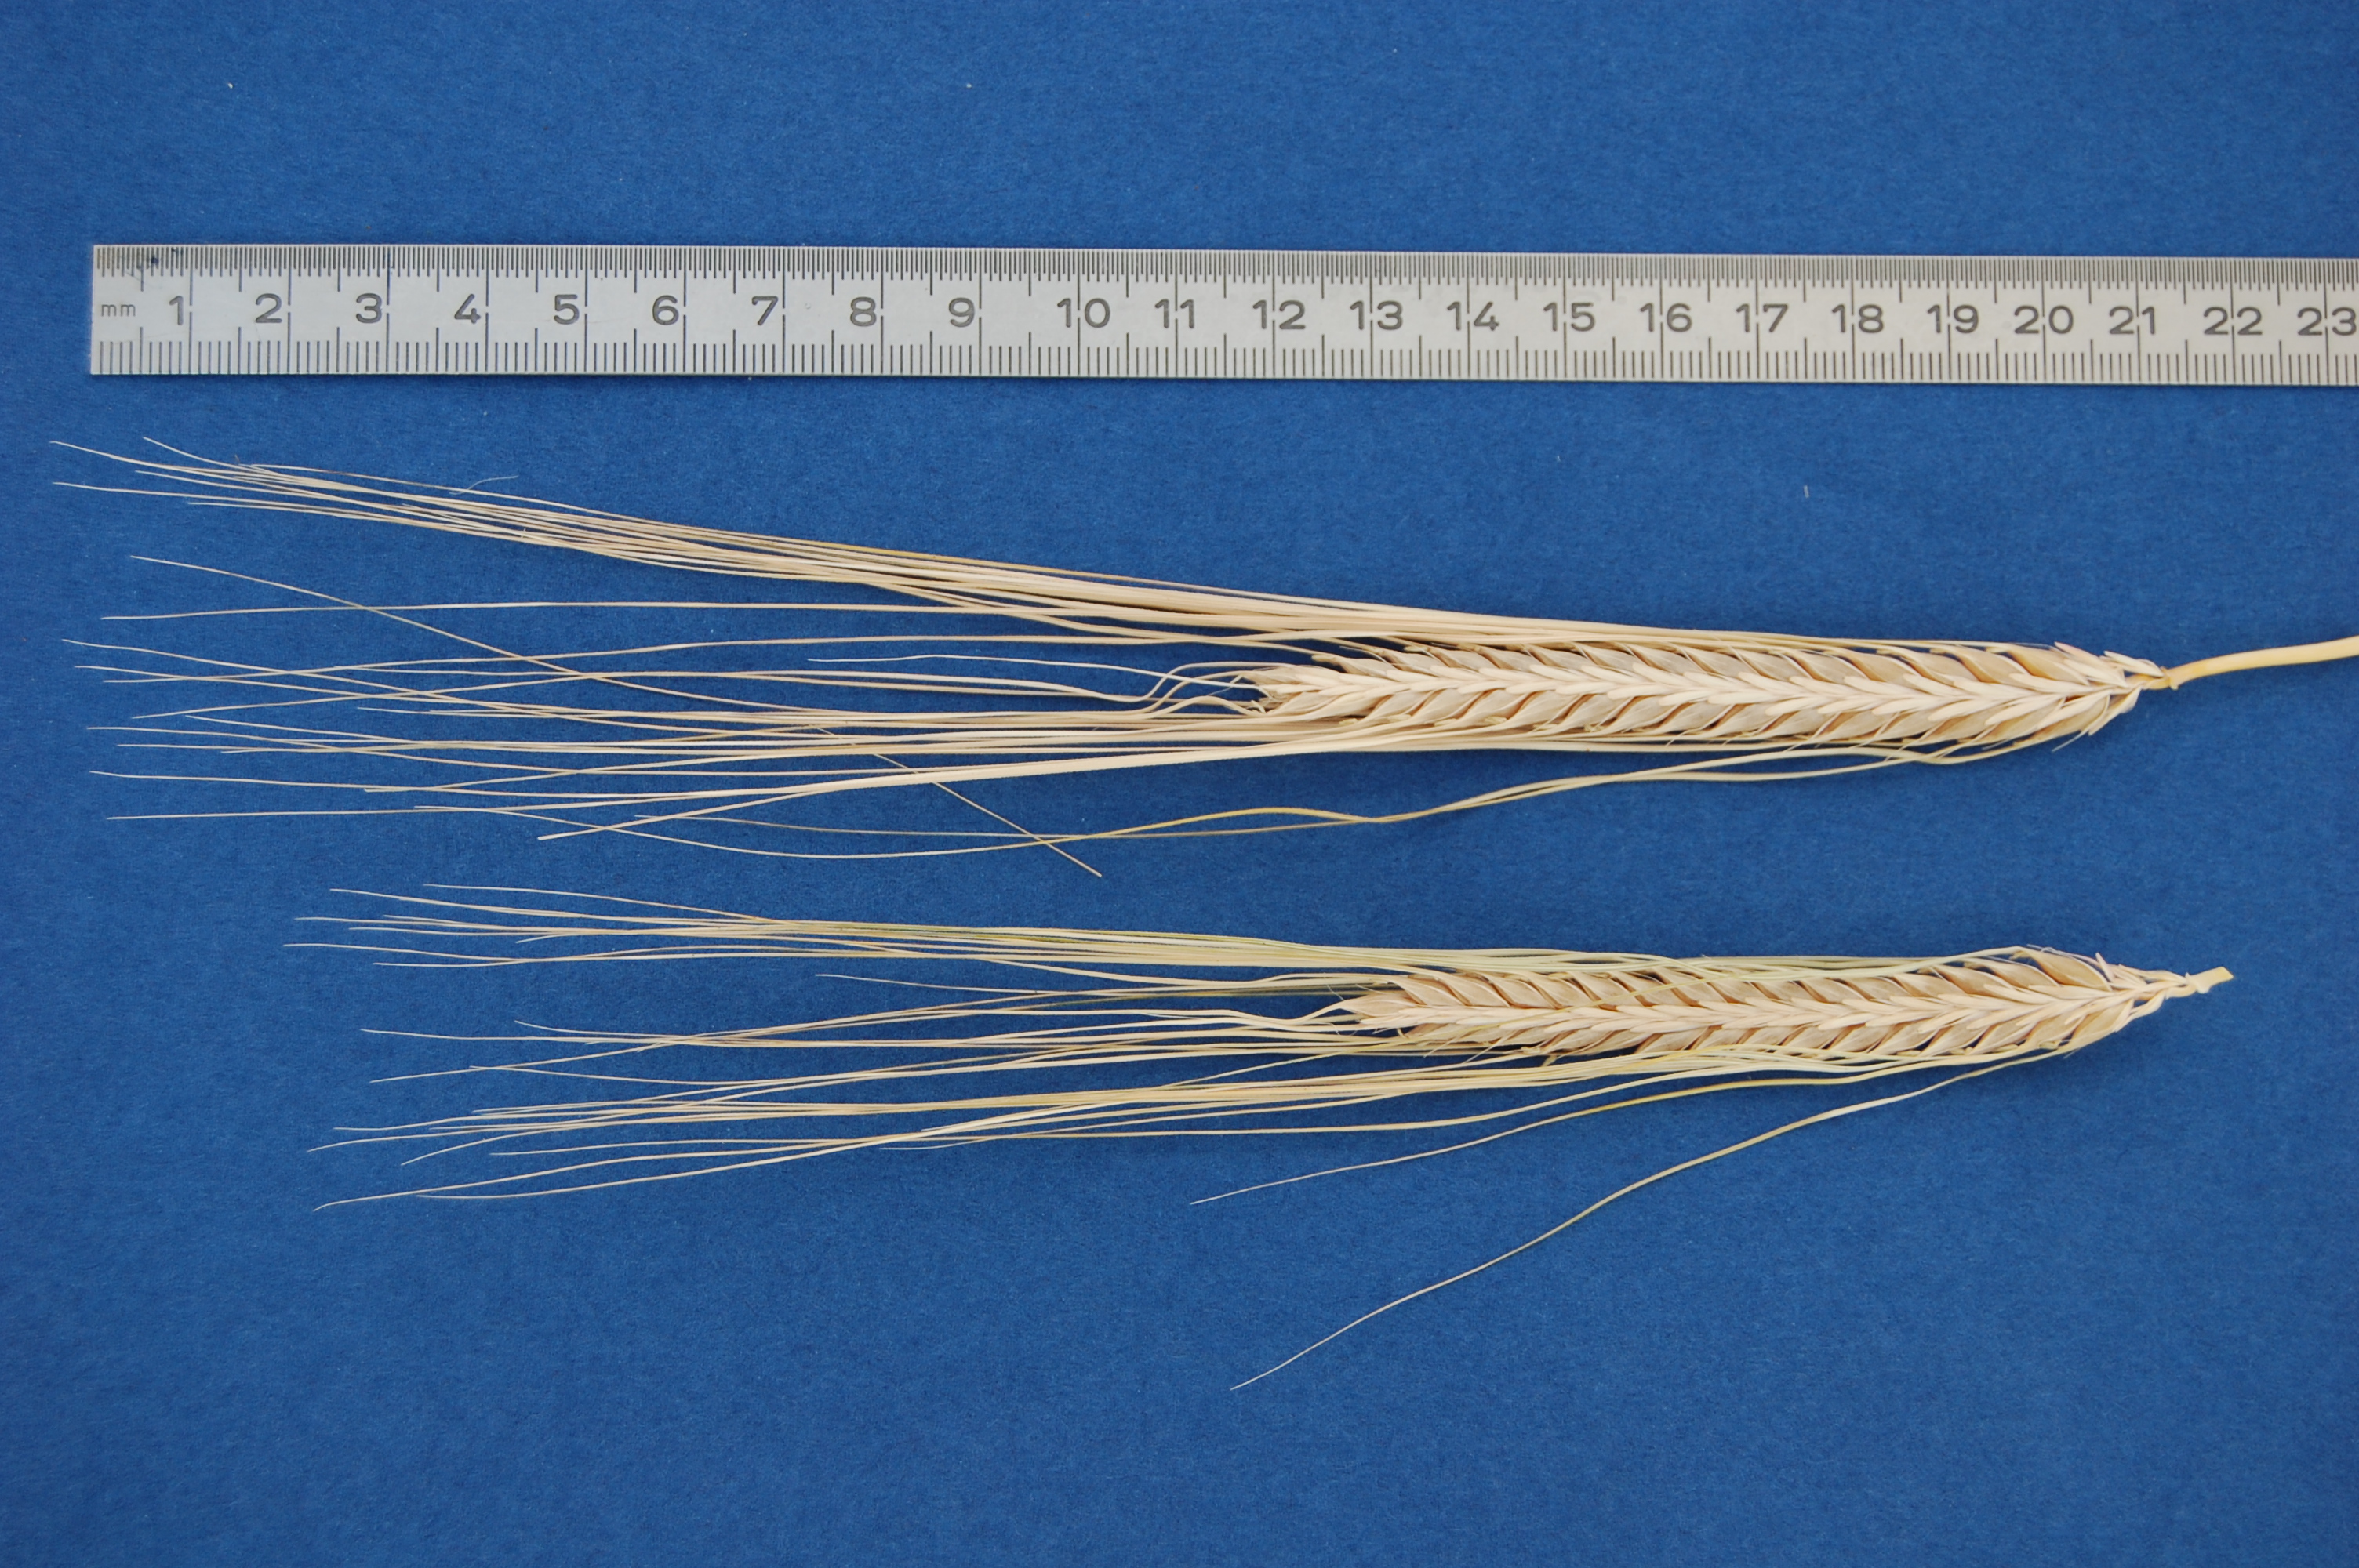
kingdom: Plantae
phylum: Tracheophyta
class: Liliopsida
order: Poales
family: Poaceae
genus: Hordeum
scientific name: Hordeum vulgare
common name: Common barley
